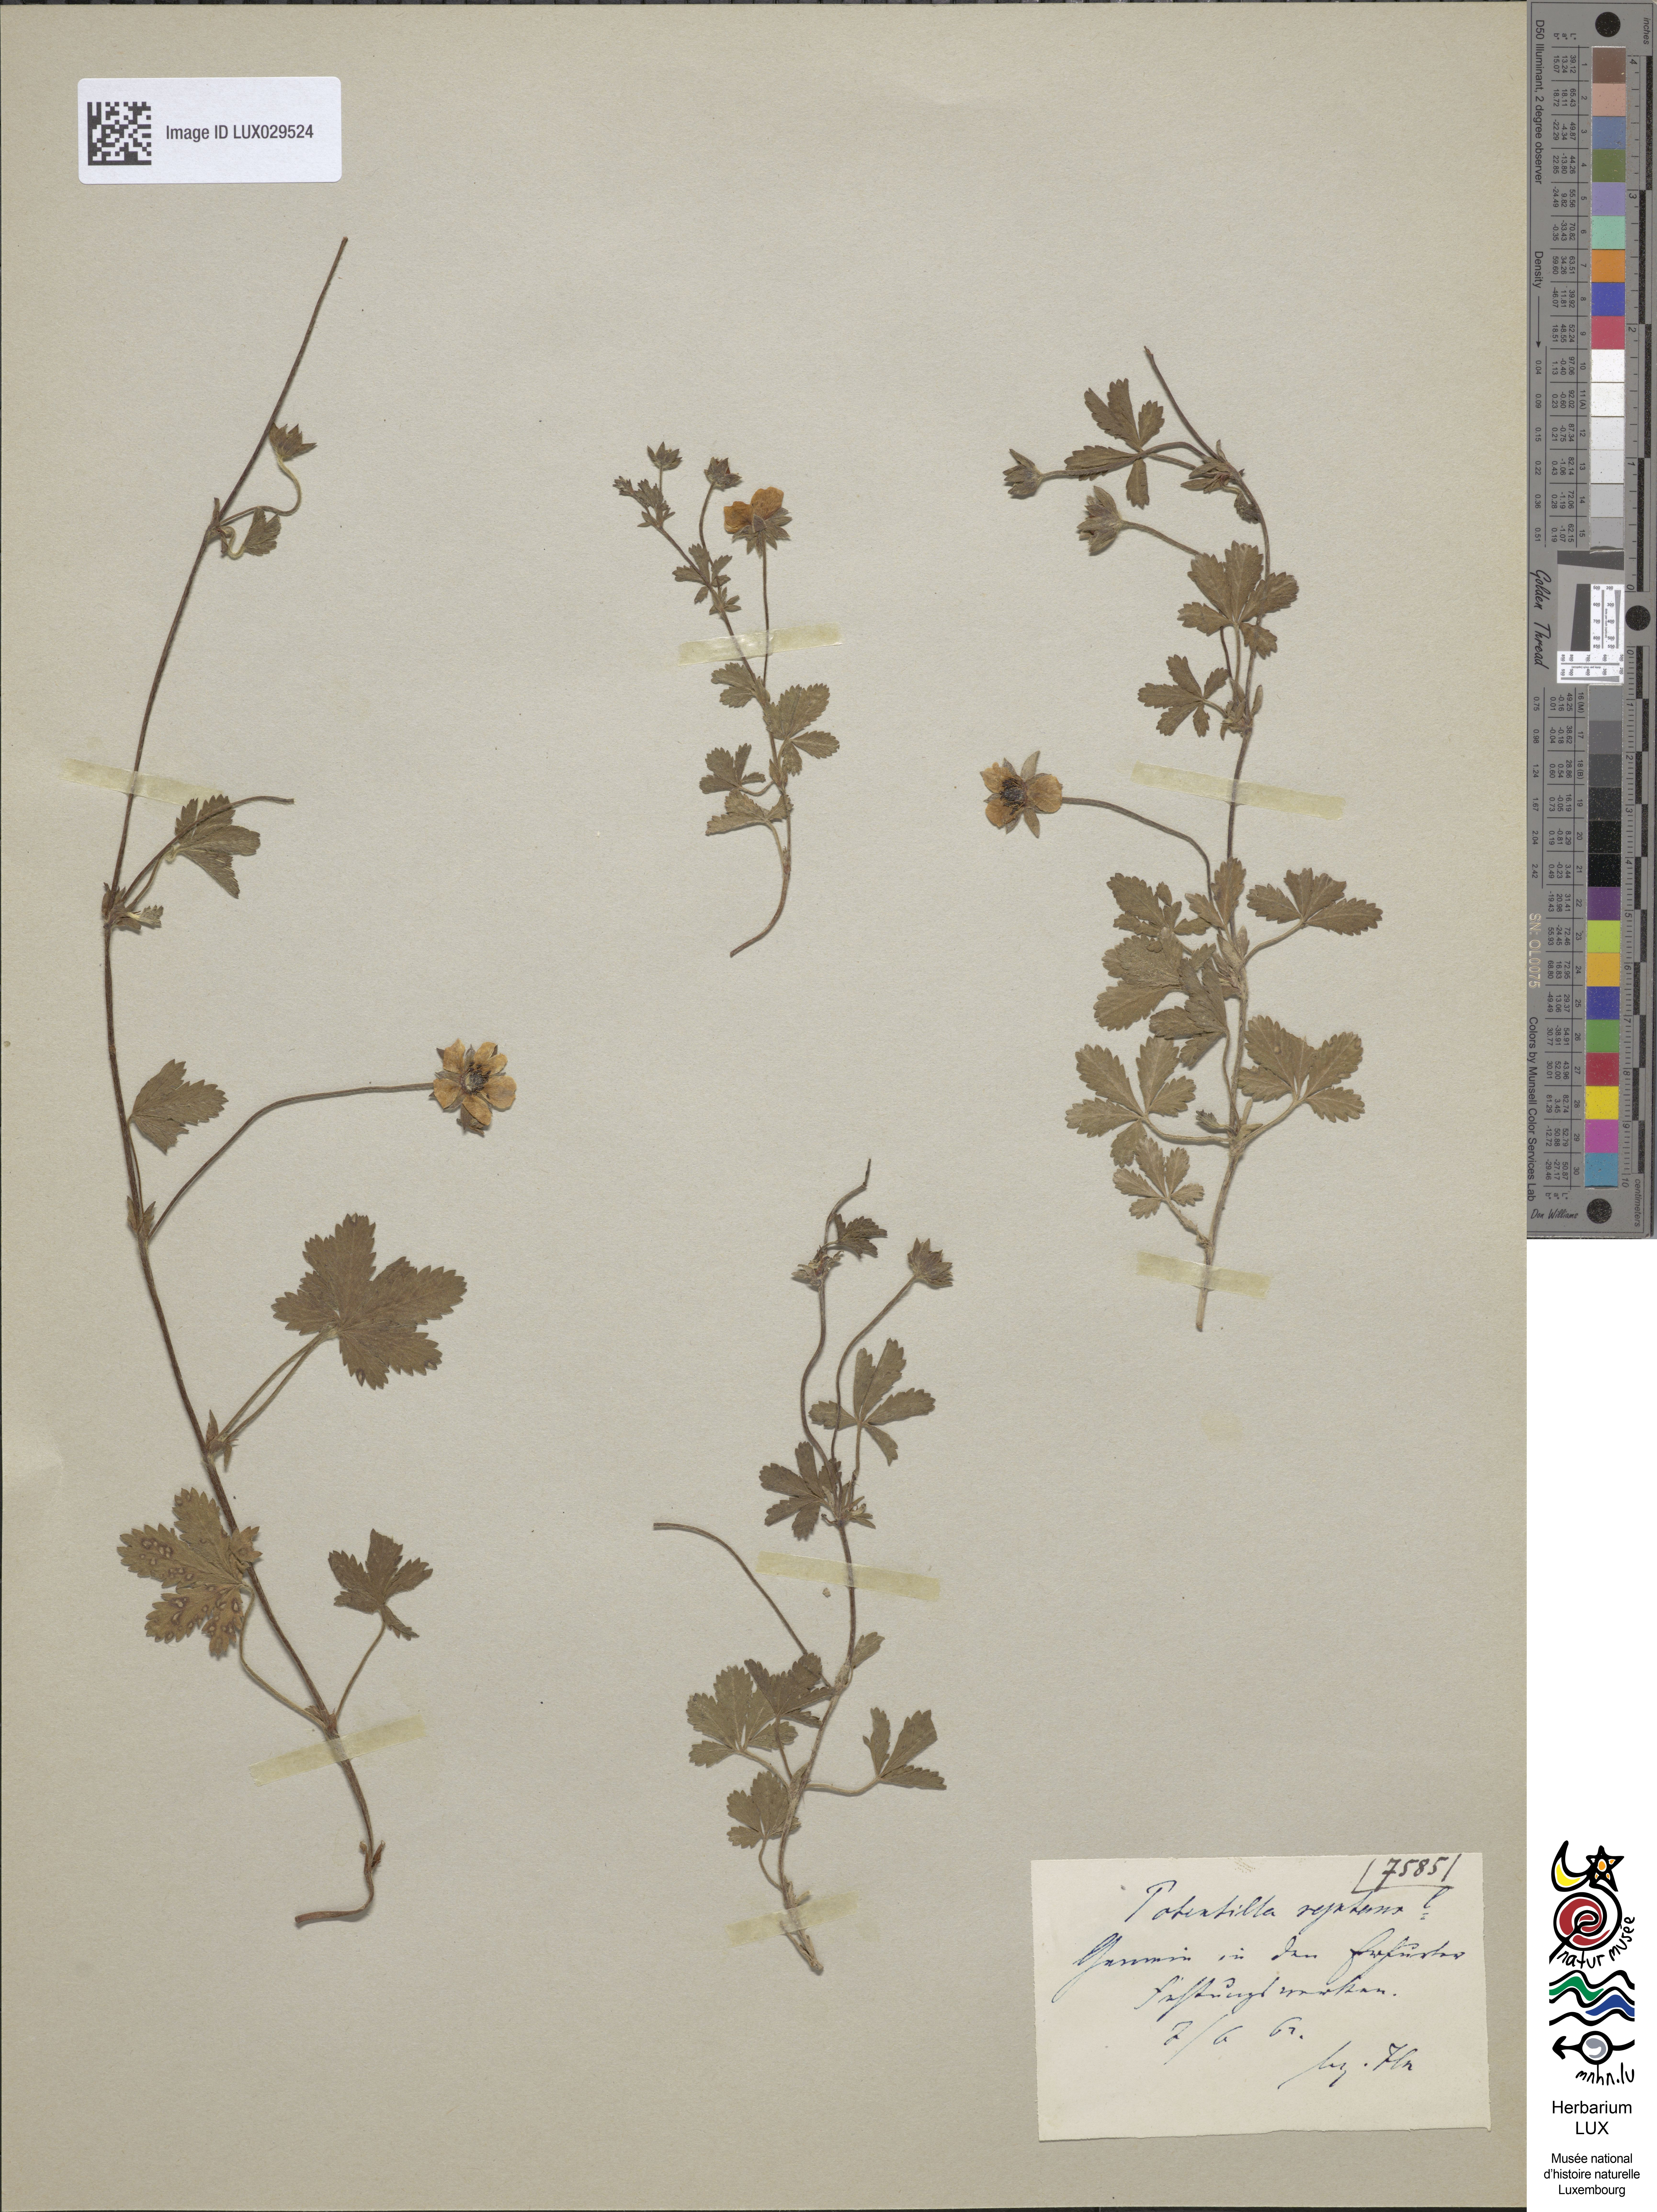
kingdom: Plantae
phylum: Tracheophyta
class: Magnoliopsida
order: Rosales
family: Rosaceae
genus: Potentilla
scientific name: Potentilla reptans
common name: Creeping cinquefoil
